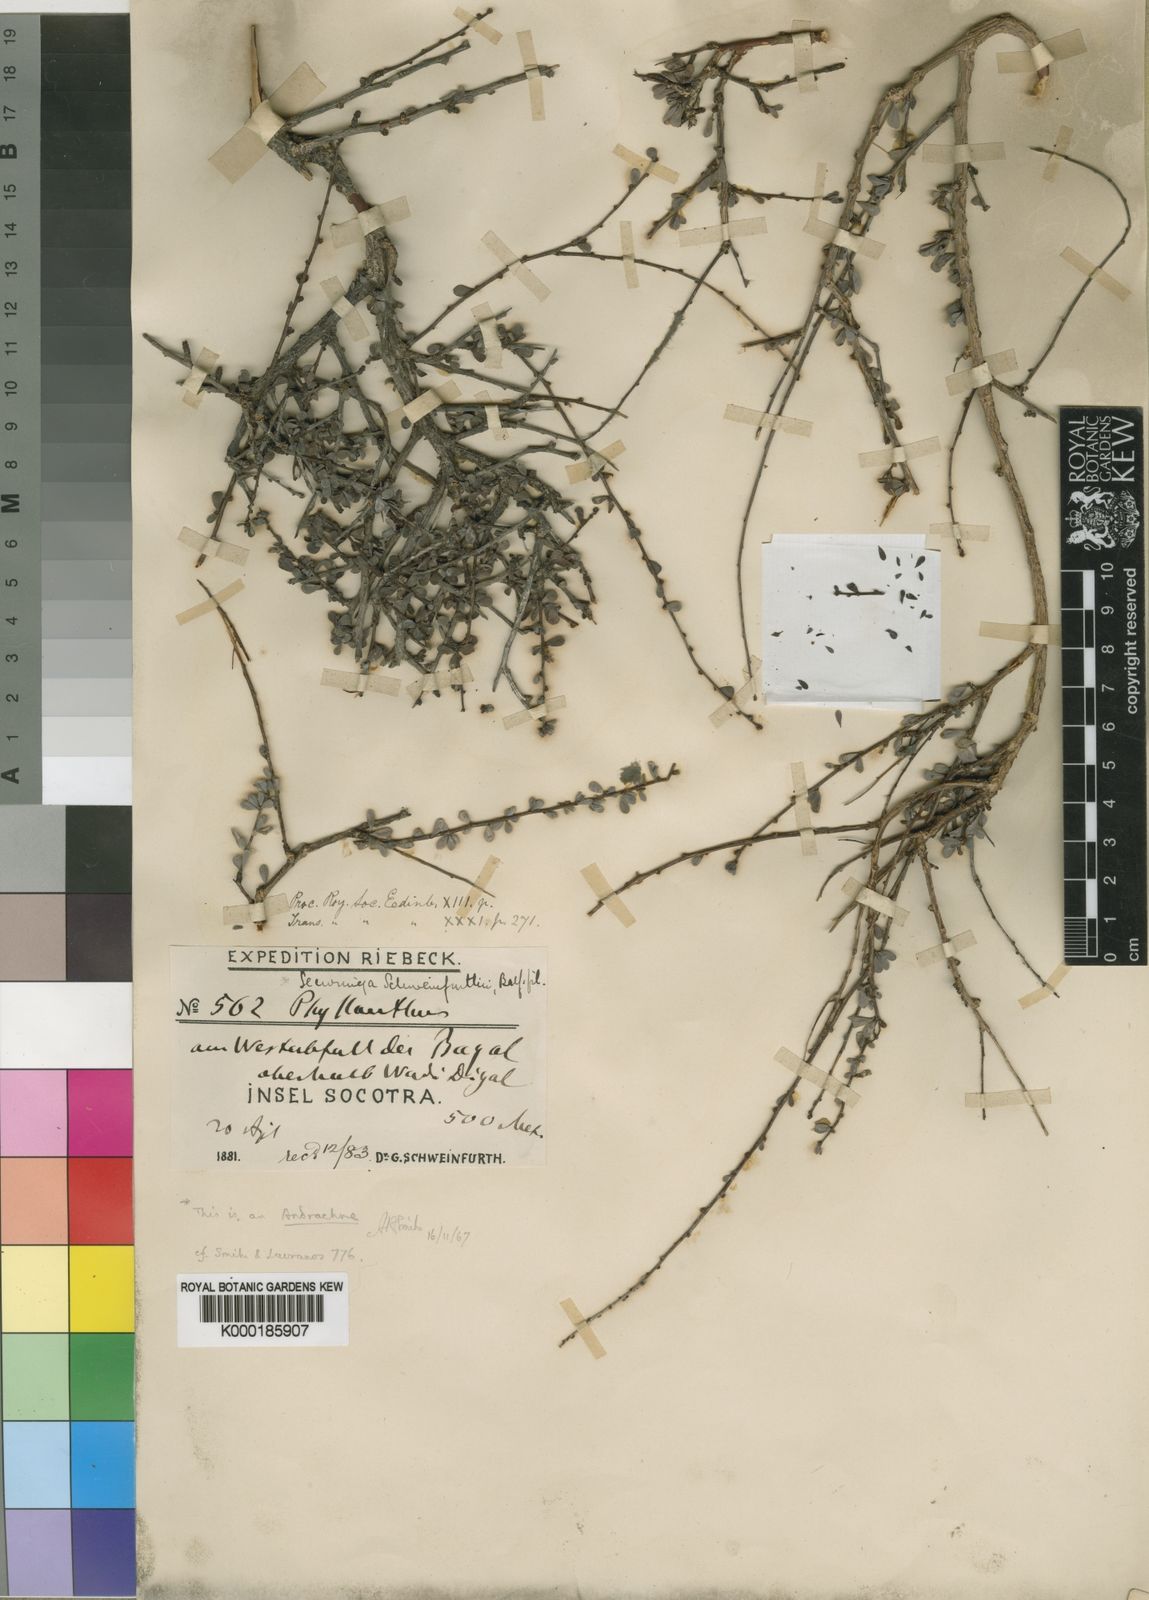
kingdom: Plantae
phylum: Tracheophyta
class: Magnoliopsida
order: Malpighiales
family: Phyllanthaceae
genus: Andrachne
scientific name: Andrachne schweinfurthii
